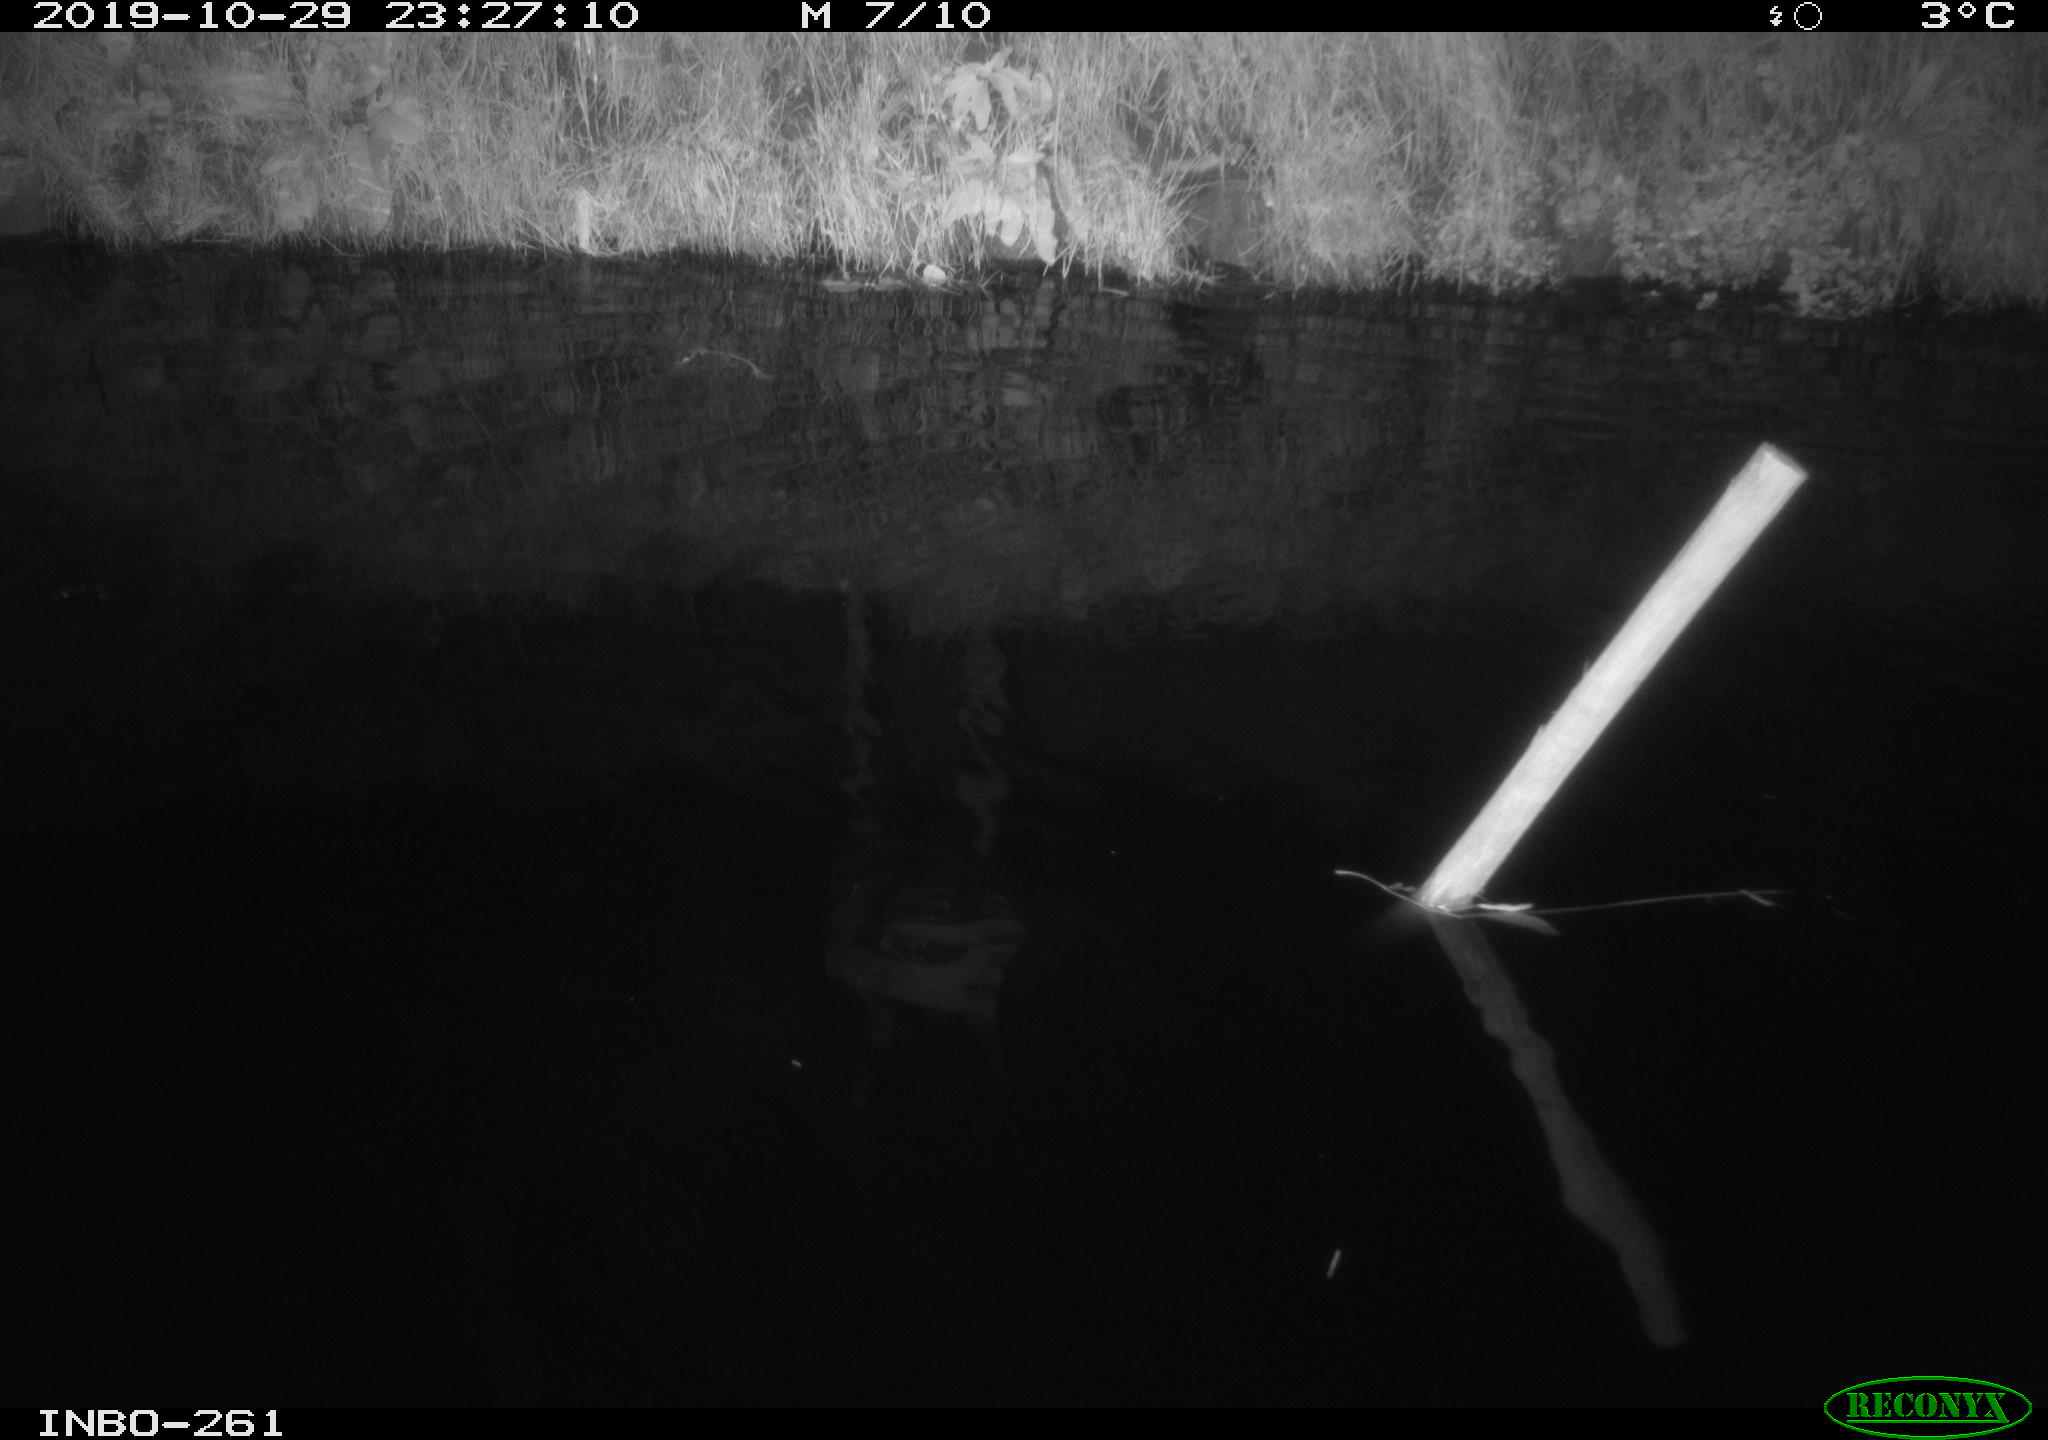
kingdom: Animalia
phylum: Chordata
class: Aves
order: Anseriformes
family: Anatidae
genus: Anas
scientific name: Anas platyrhynchos
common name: Mallard
